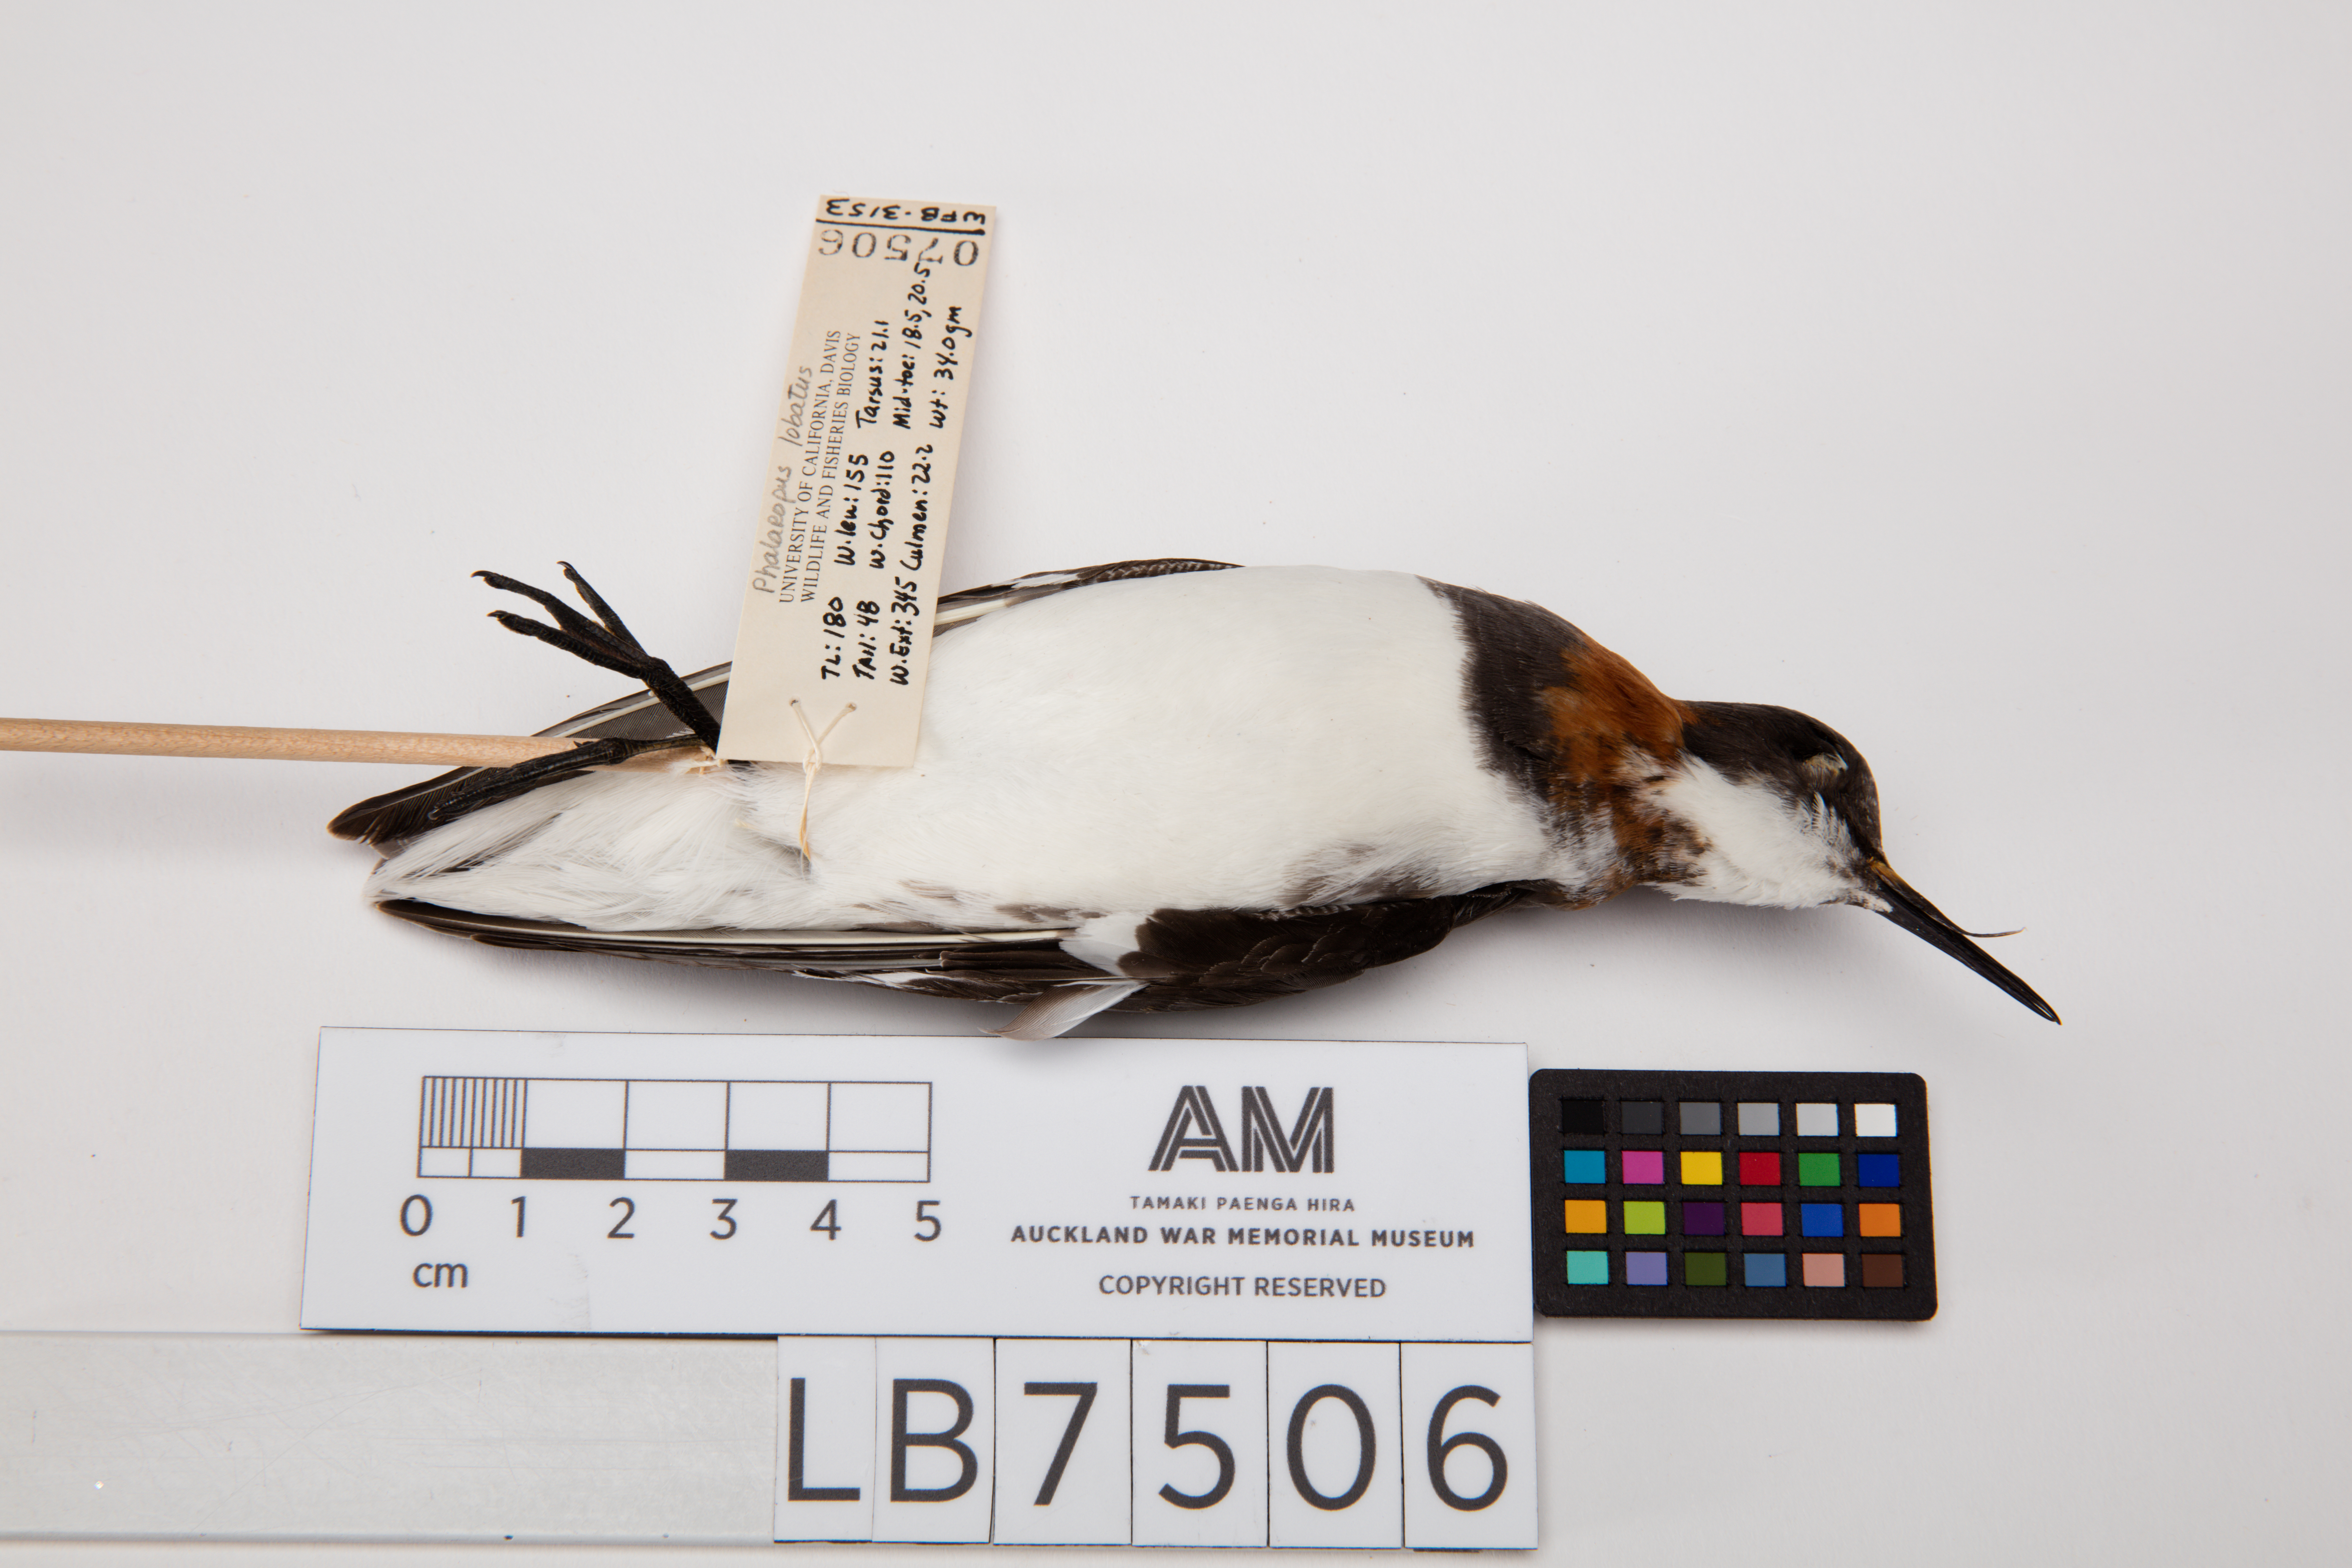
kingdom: Animalia
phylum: Chordata
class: Aves
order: Charadriiformes
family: Scolopacidae
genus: Phalaropus
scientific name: Phalaropus lobatus
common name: Red-necked phalarope
